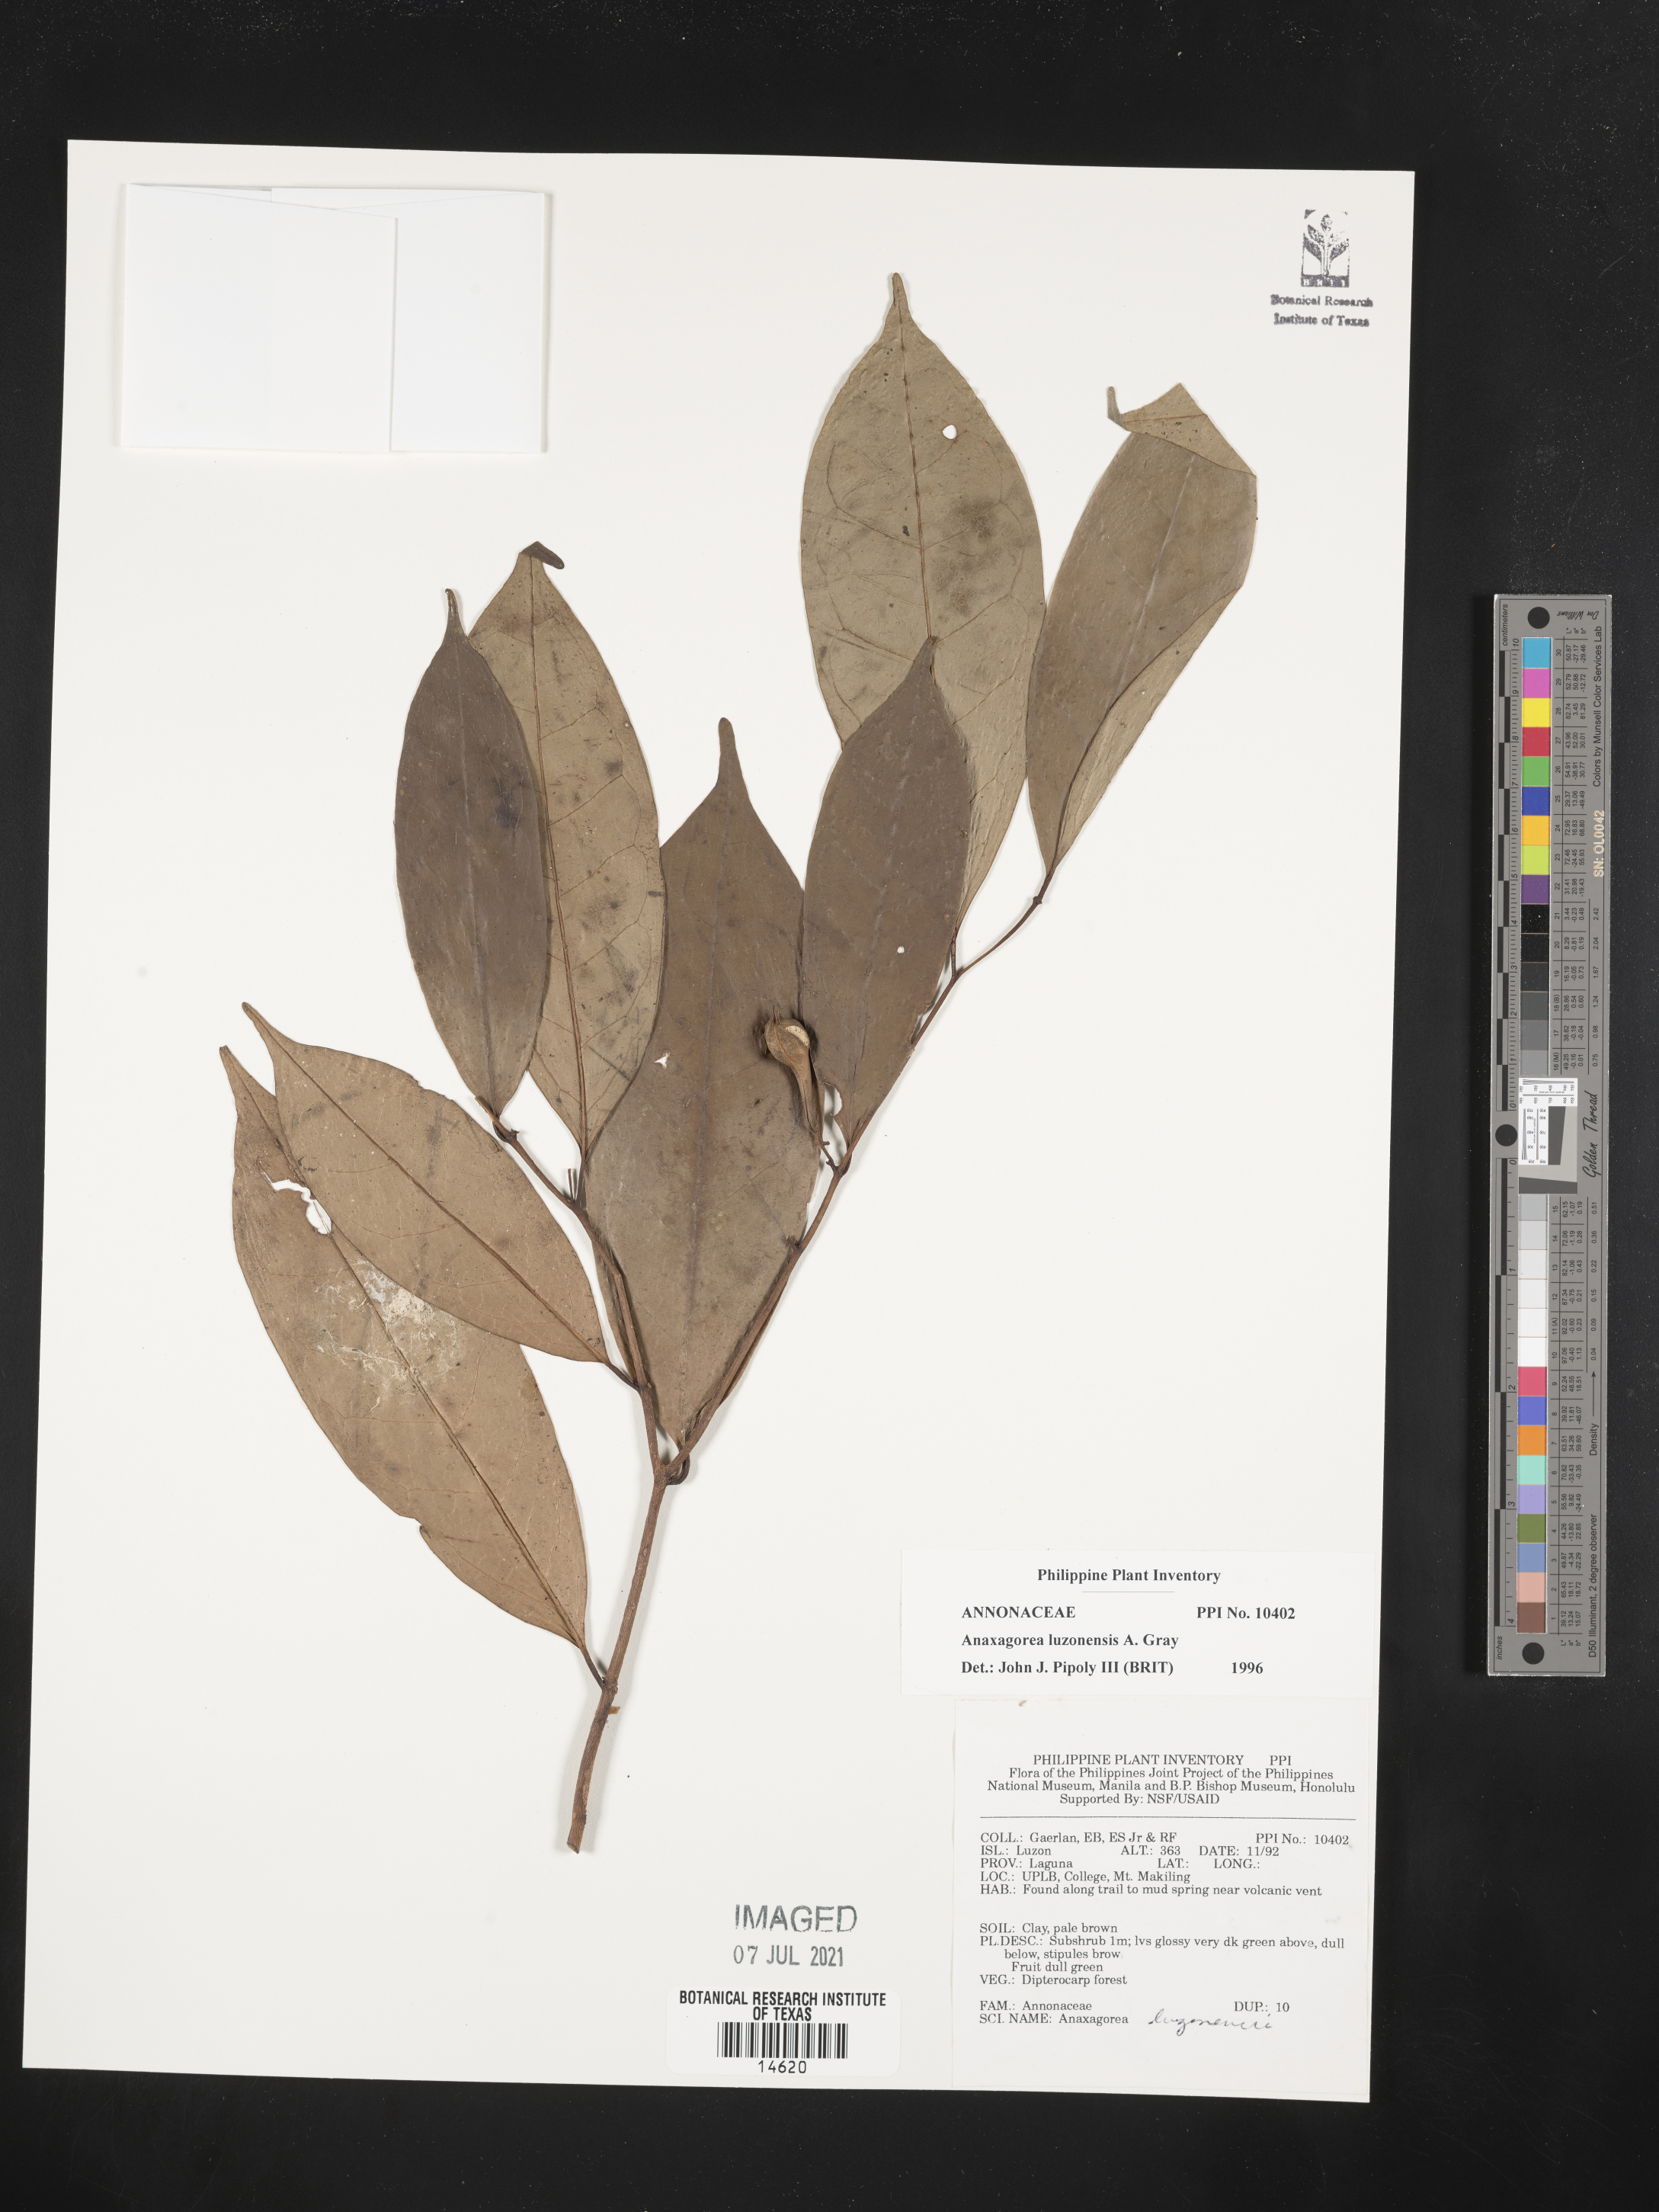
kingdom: Plantae
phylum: Tracheophyta
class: Magnoliopsida
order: Magnoliales
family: Annonaceae
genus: Anaxagorea
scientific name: Anaxagorea luzonensis
